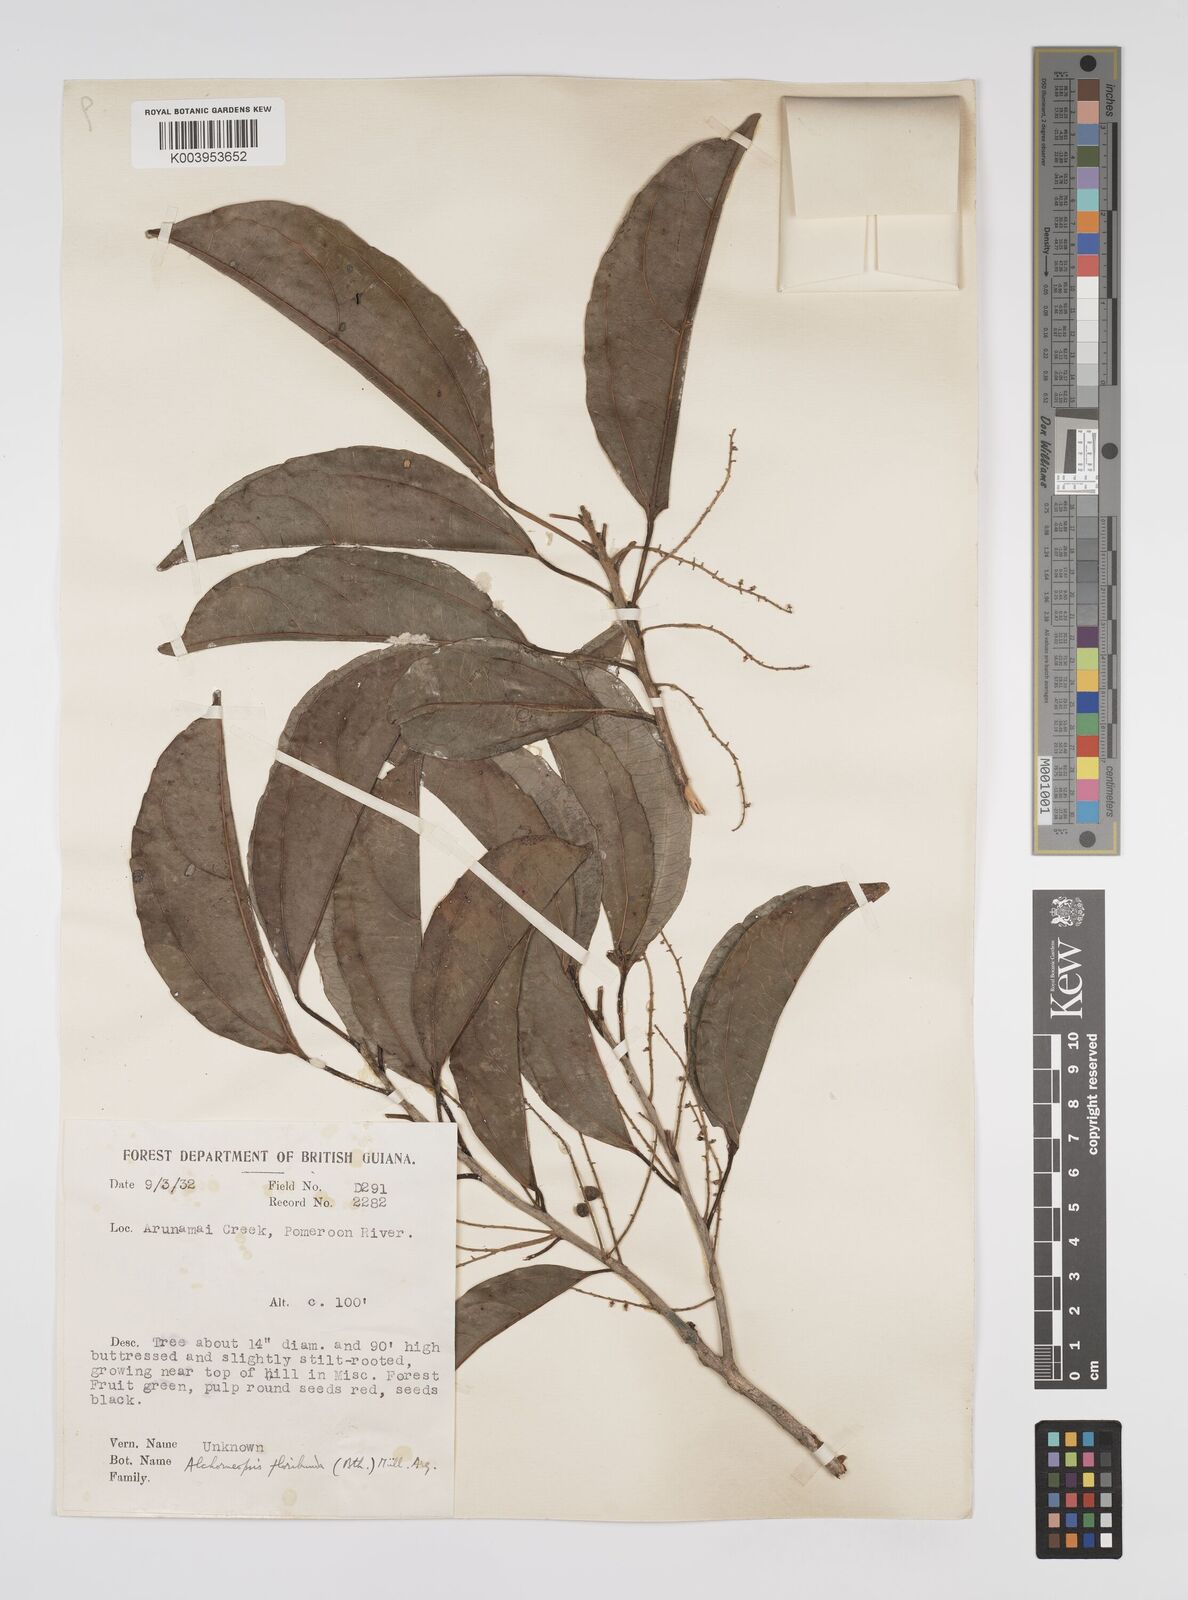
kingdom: Plantae
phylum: Tracheophyta
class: Magnoliopsida
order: Malpighiales
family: Euphorbiaceae
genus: Alchorneopsis
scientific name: Alchorneopsis floribunda
